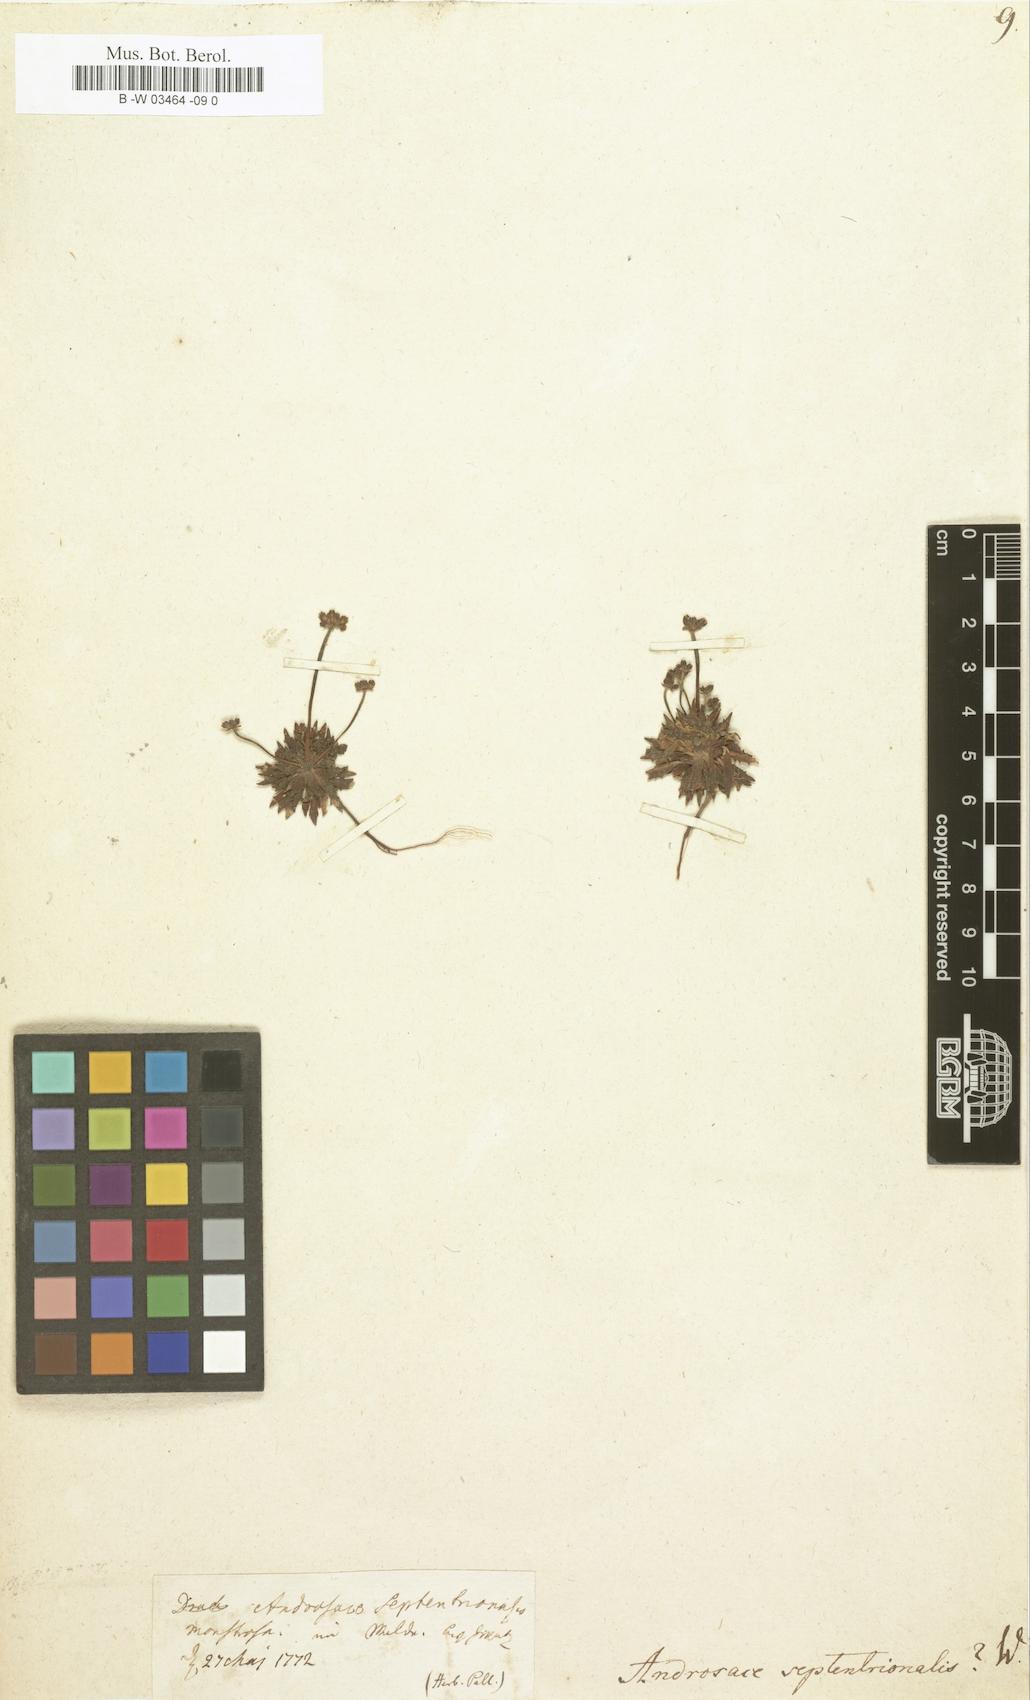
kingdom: Plantae
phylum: Tracheophyta
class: Magnoliopsida
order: Ericales
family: Primulaceae
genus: Androsace
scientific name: Androsace septentrionalis
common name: Hairy northern fairy-candelabra
